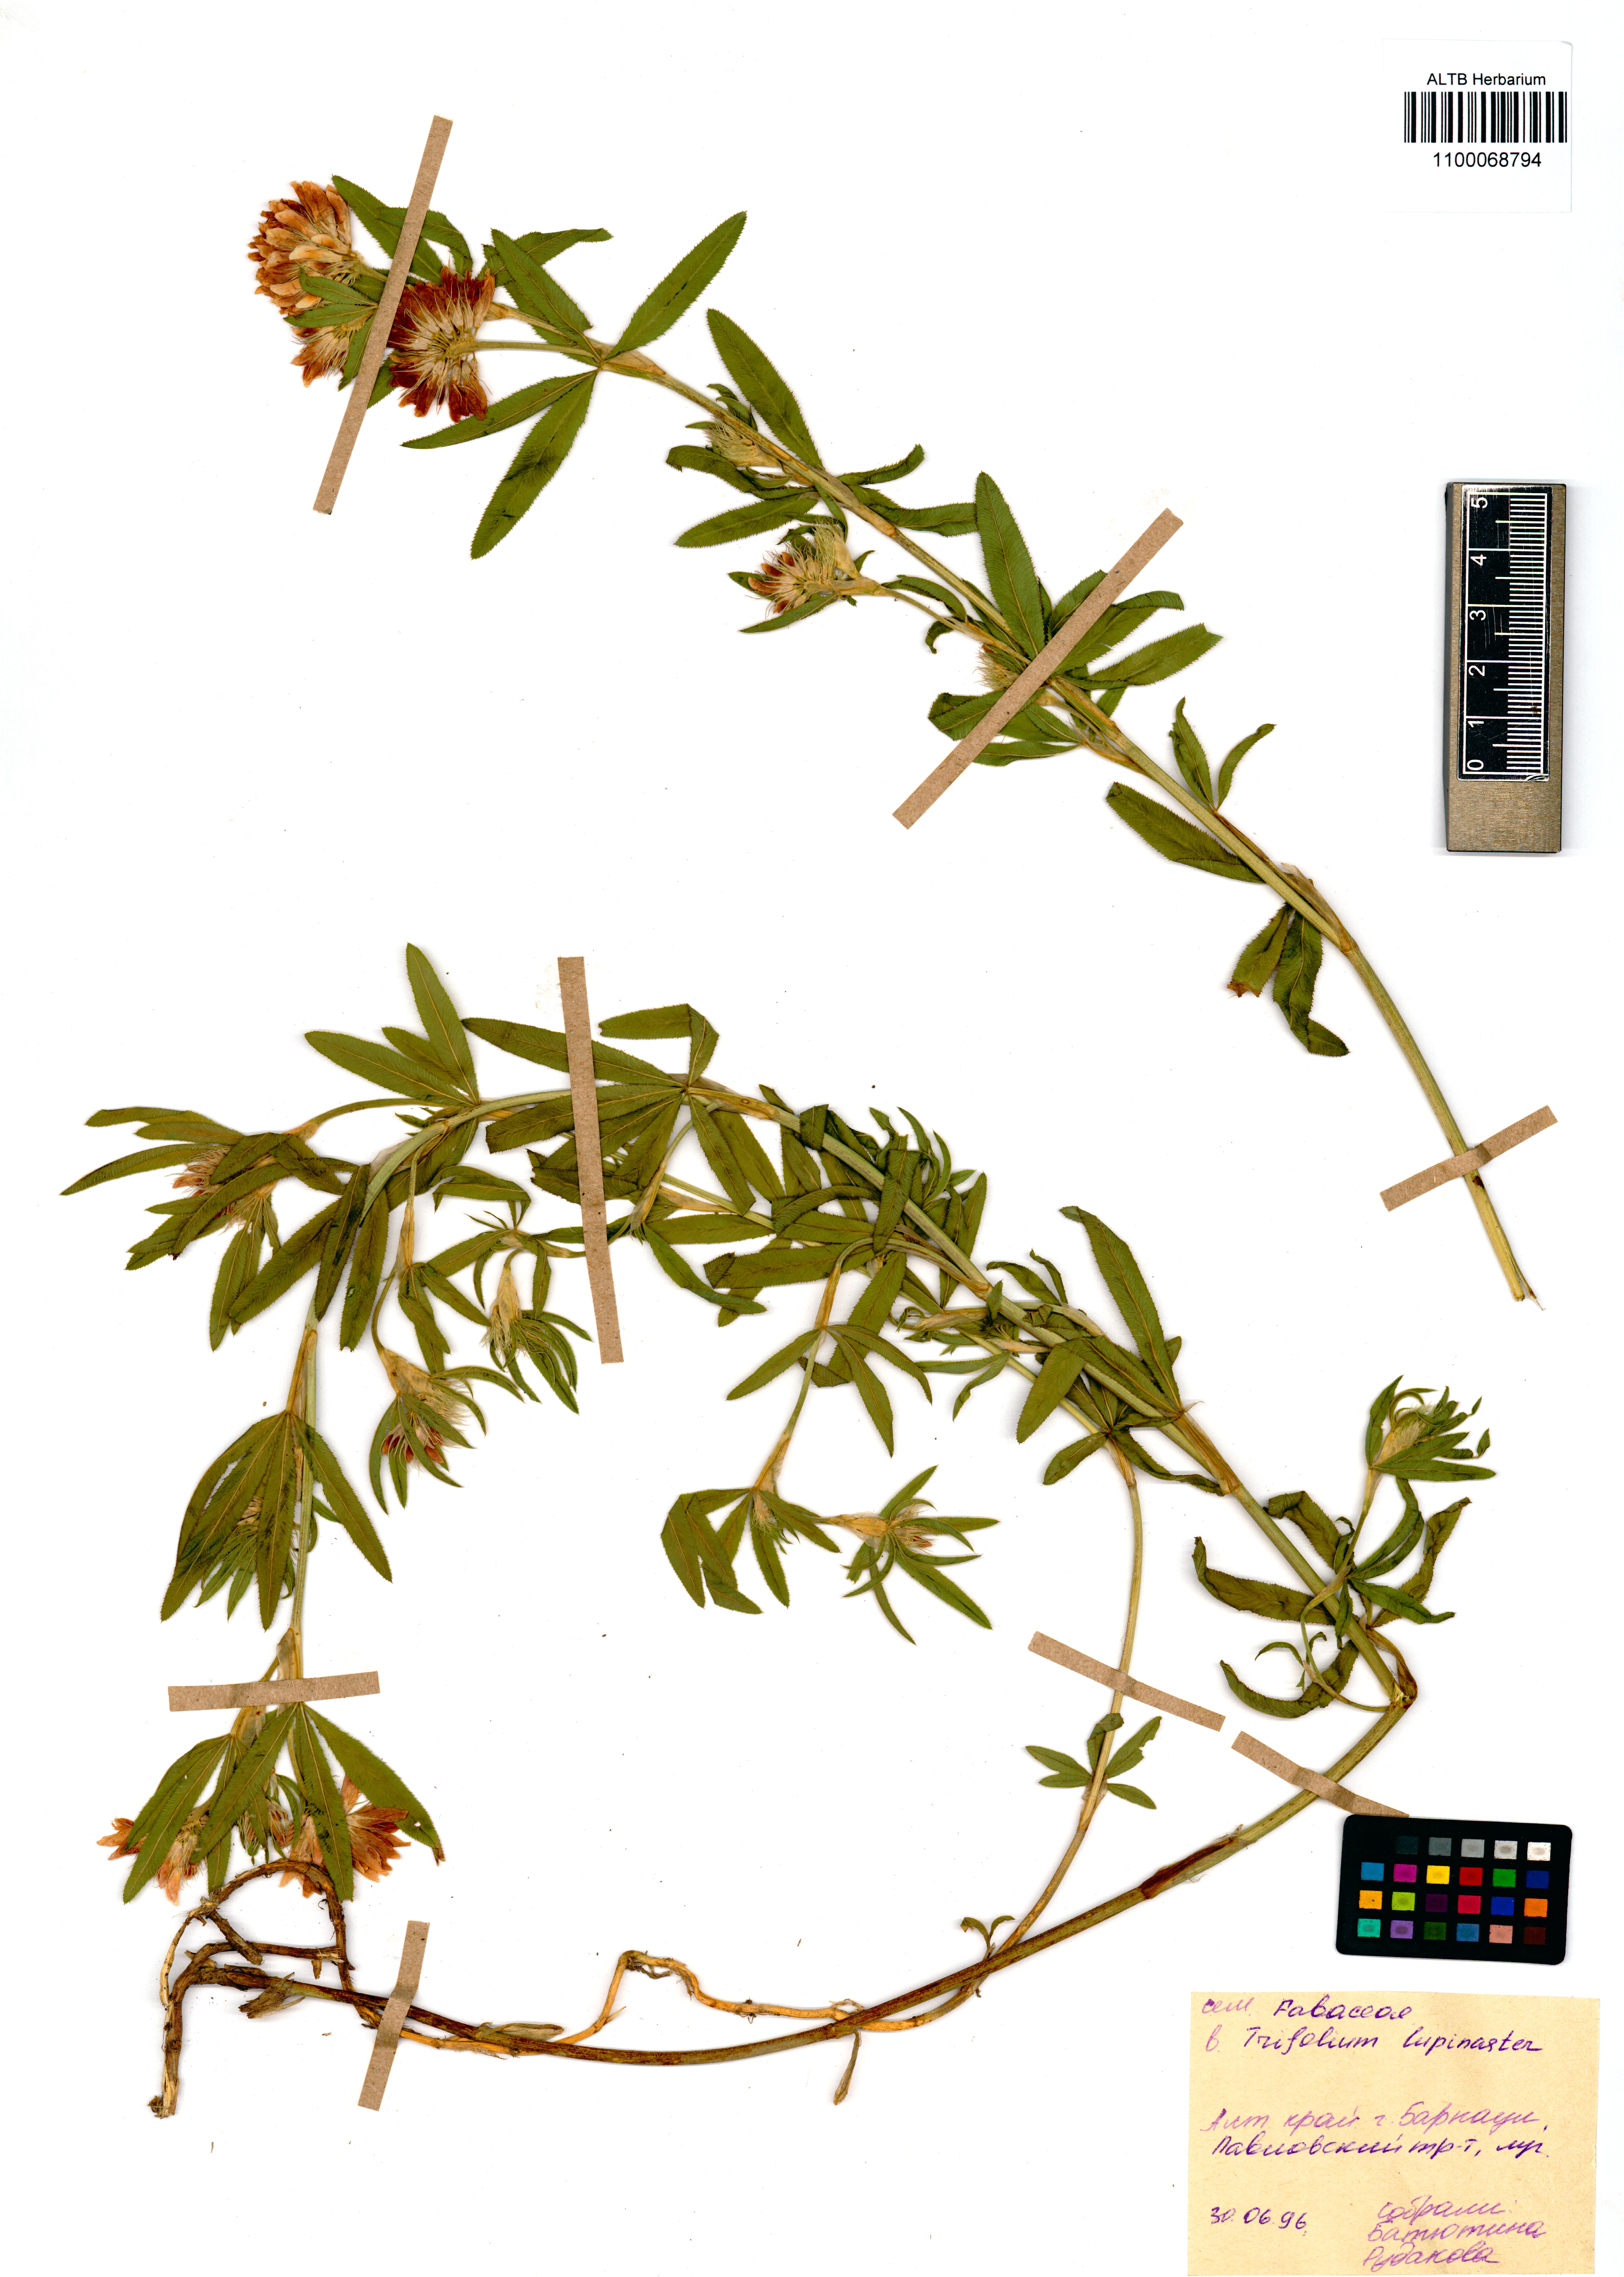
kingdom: Plantae
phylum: Tracheophyta
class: Magnoliopsida
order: Fabales
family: Fabaceae
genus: Trifolium
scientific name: Trifolium lupinaster
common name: Lupine clover
